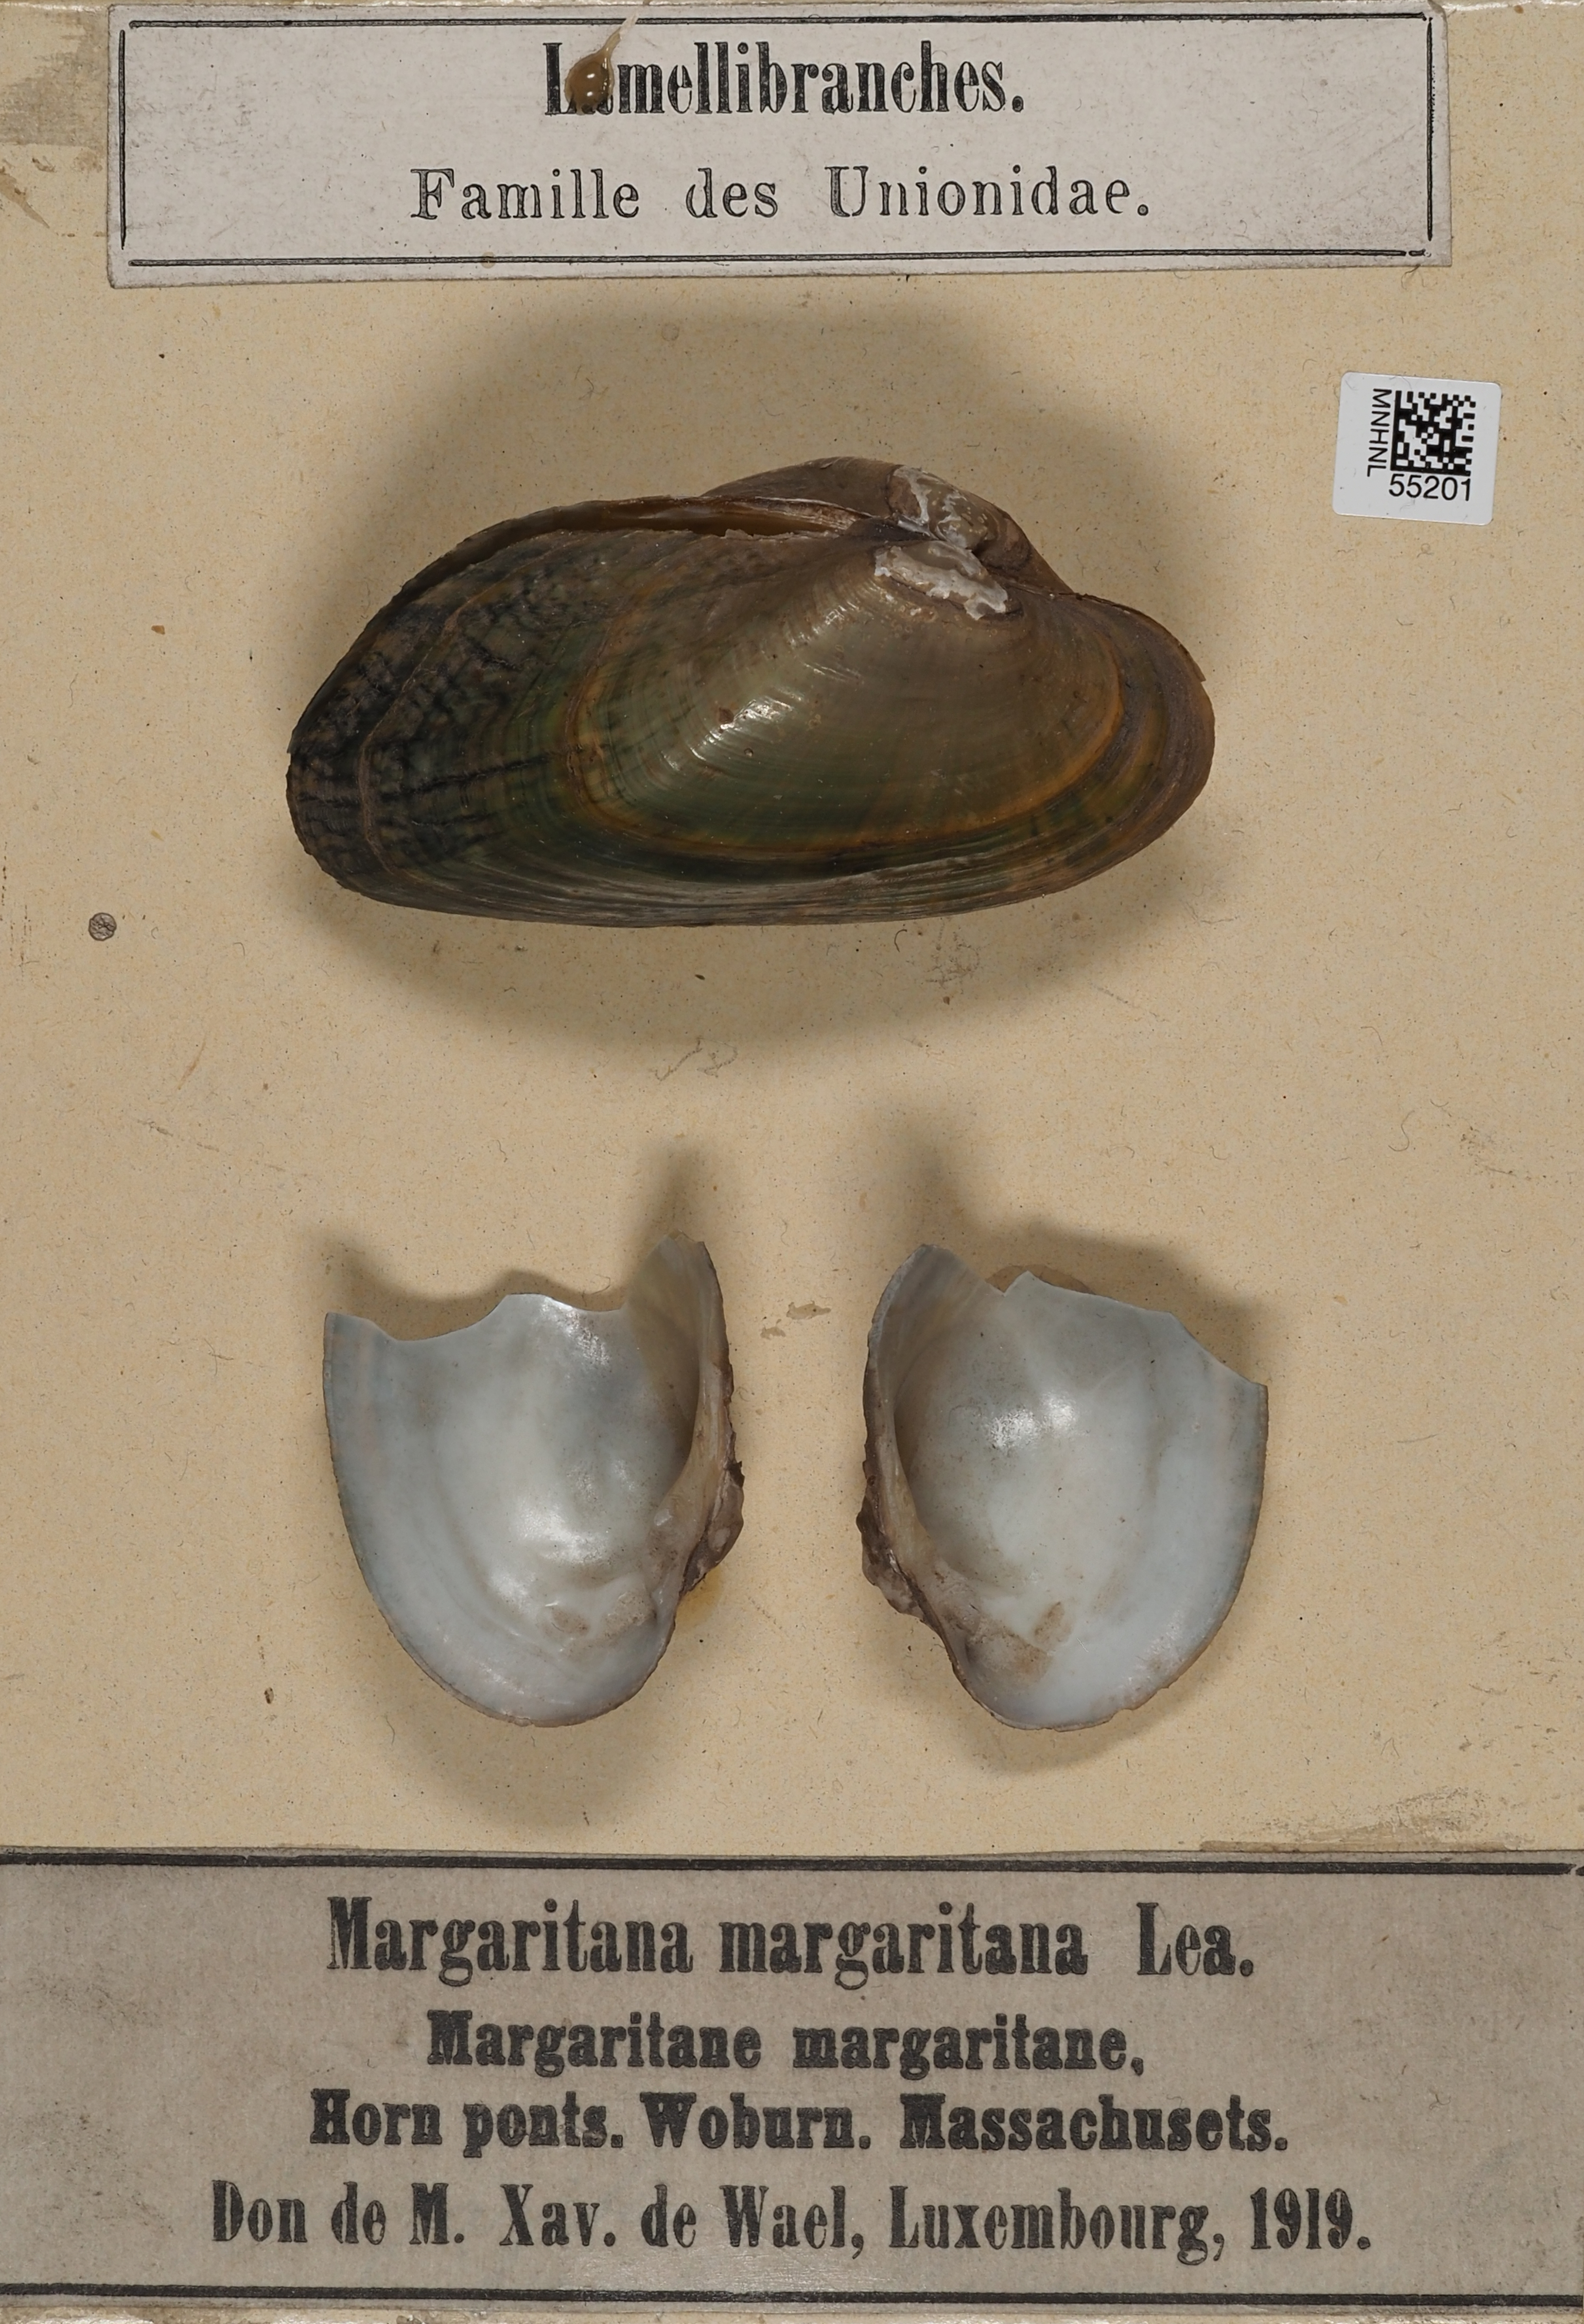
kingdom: Animalia
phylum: Mollusca
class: Bivalvia
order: Unionida
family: Margaritiferidae
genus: Margaritifera
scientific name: Margaritifera
